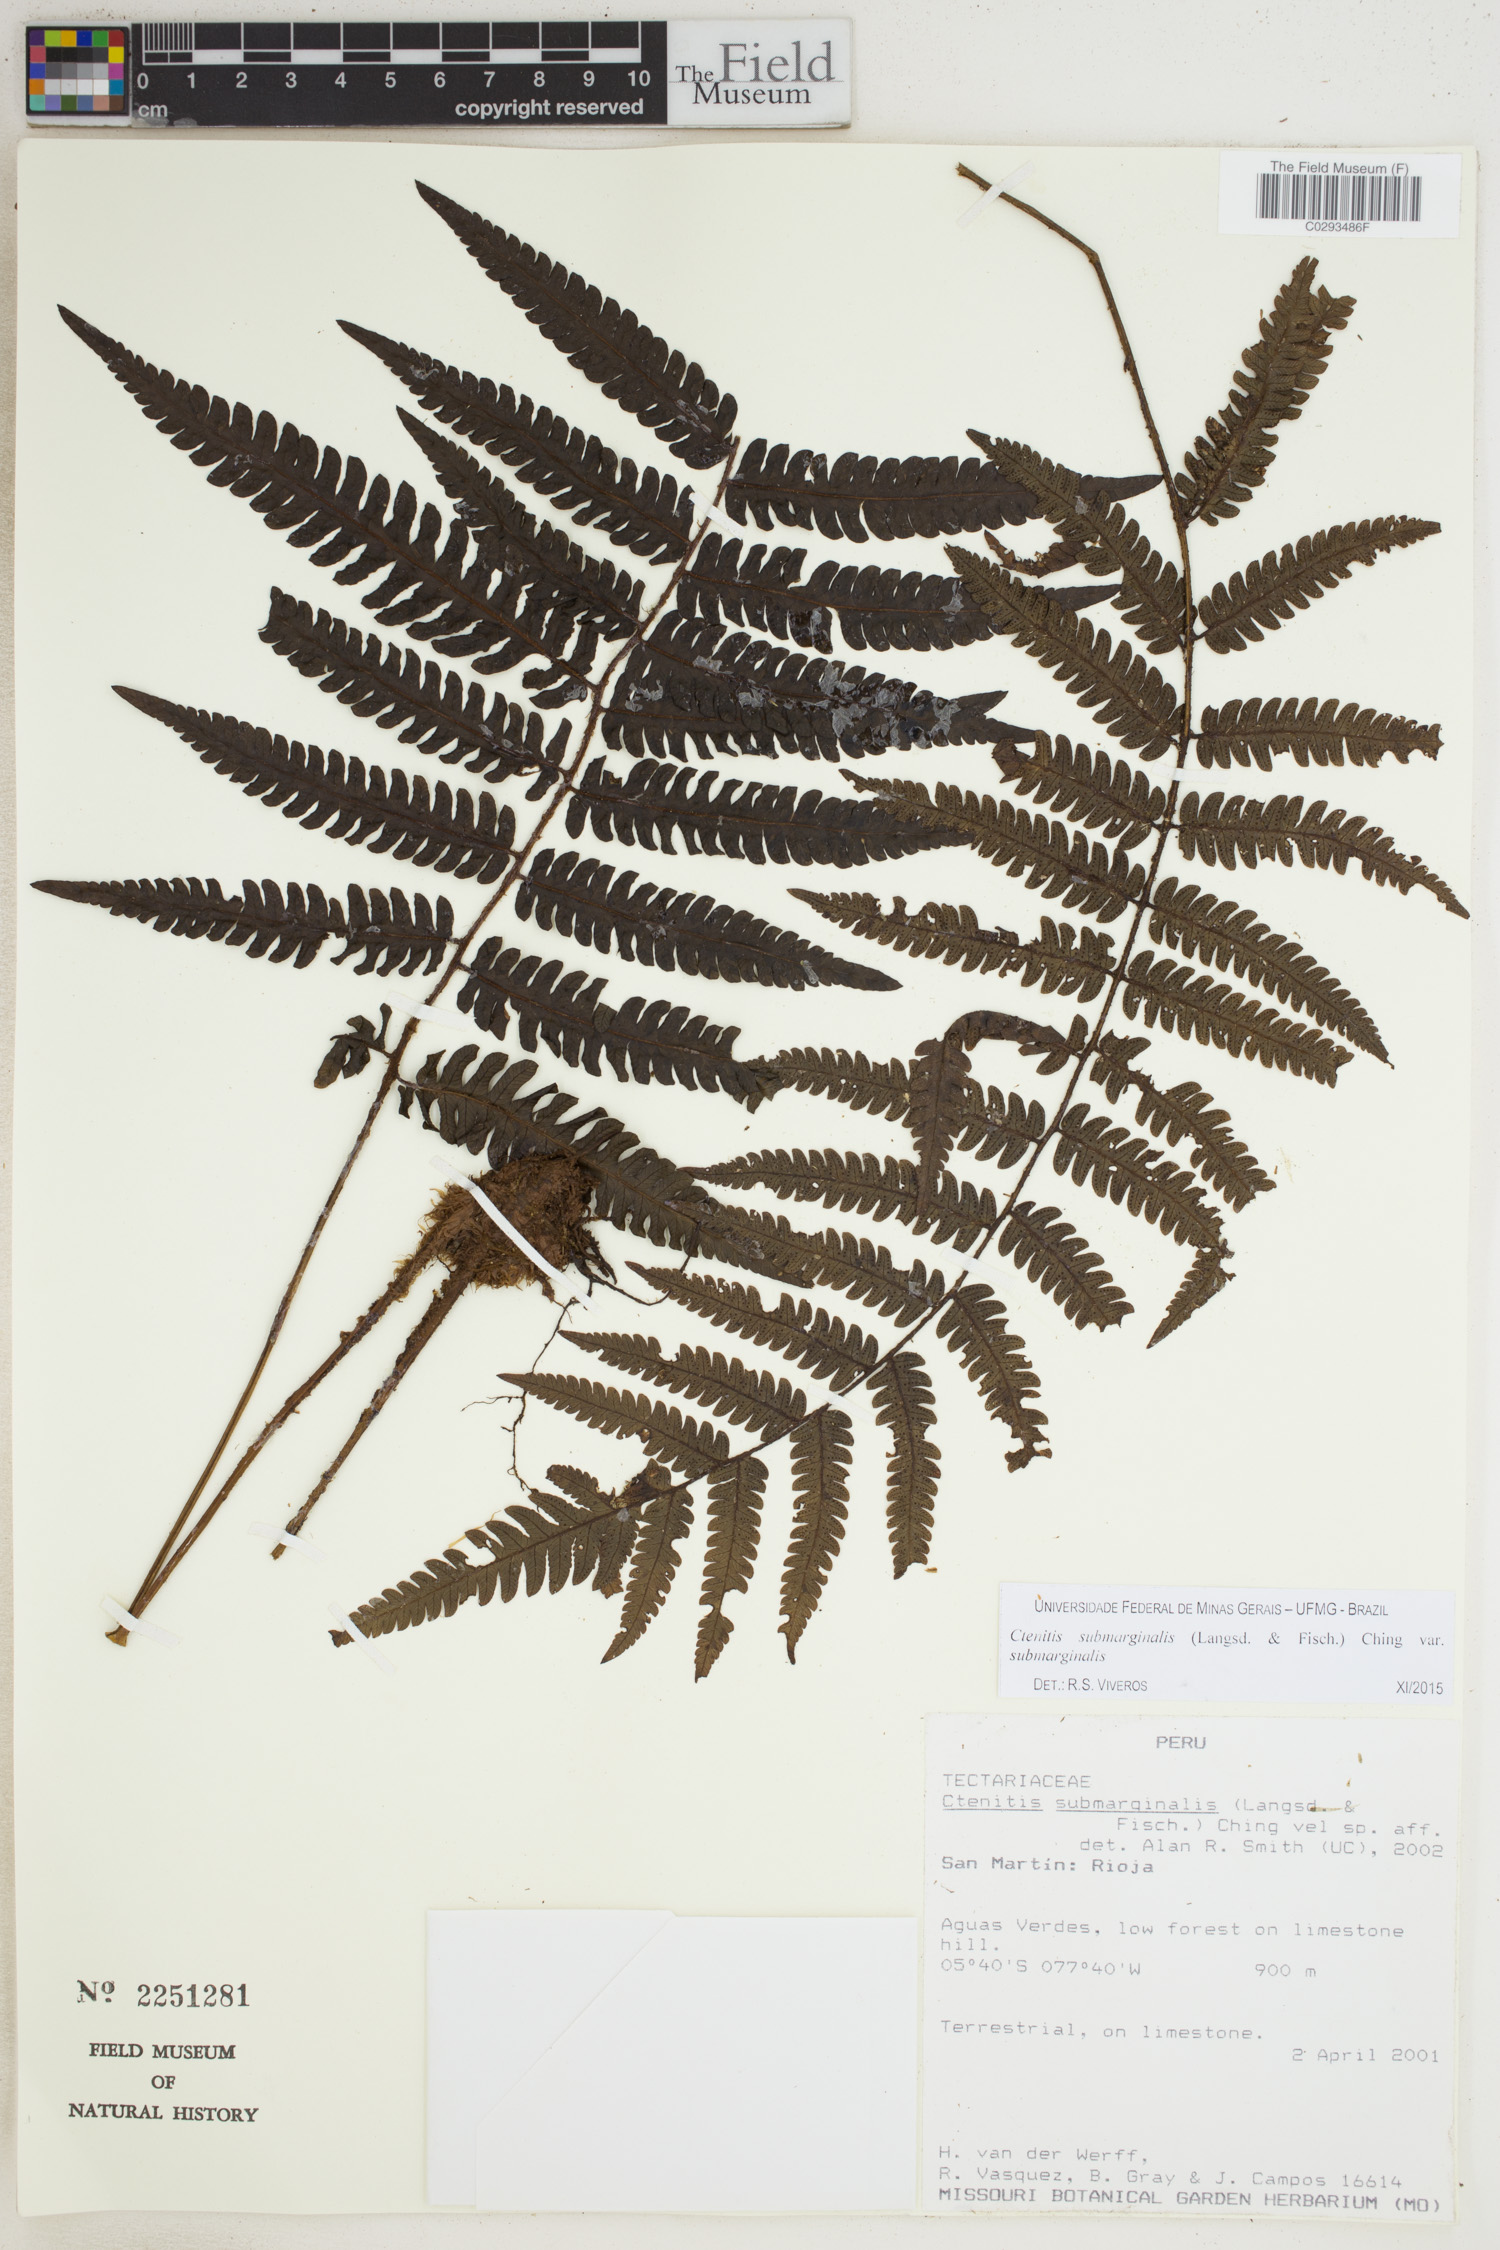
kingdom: Plantae
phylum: Tracheophyta
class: Polypodiopsida
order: Polypodiales
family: Dryopteridaceae
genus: Ctenitis
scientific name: Ctenitis submarginalis
